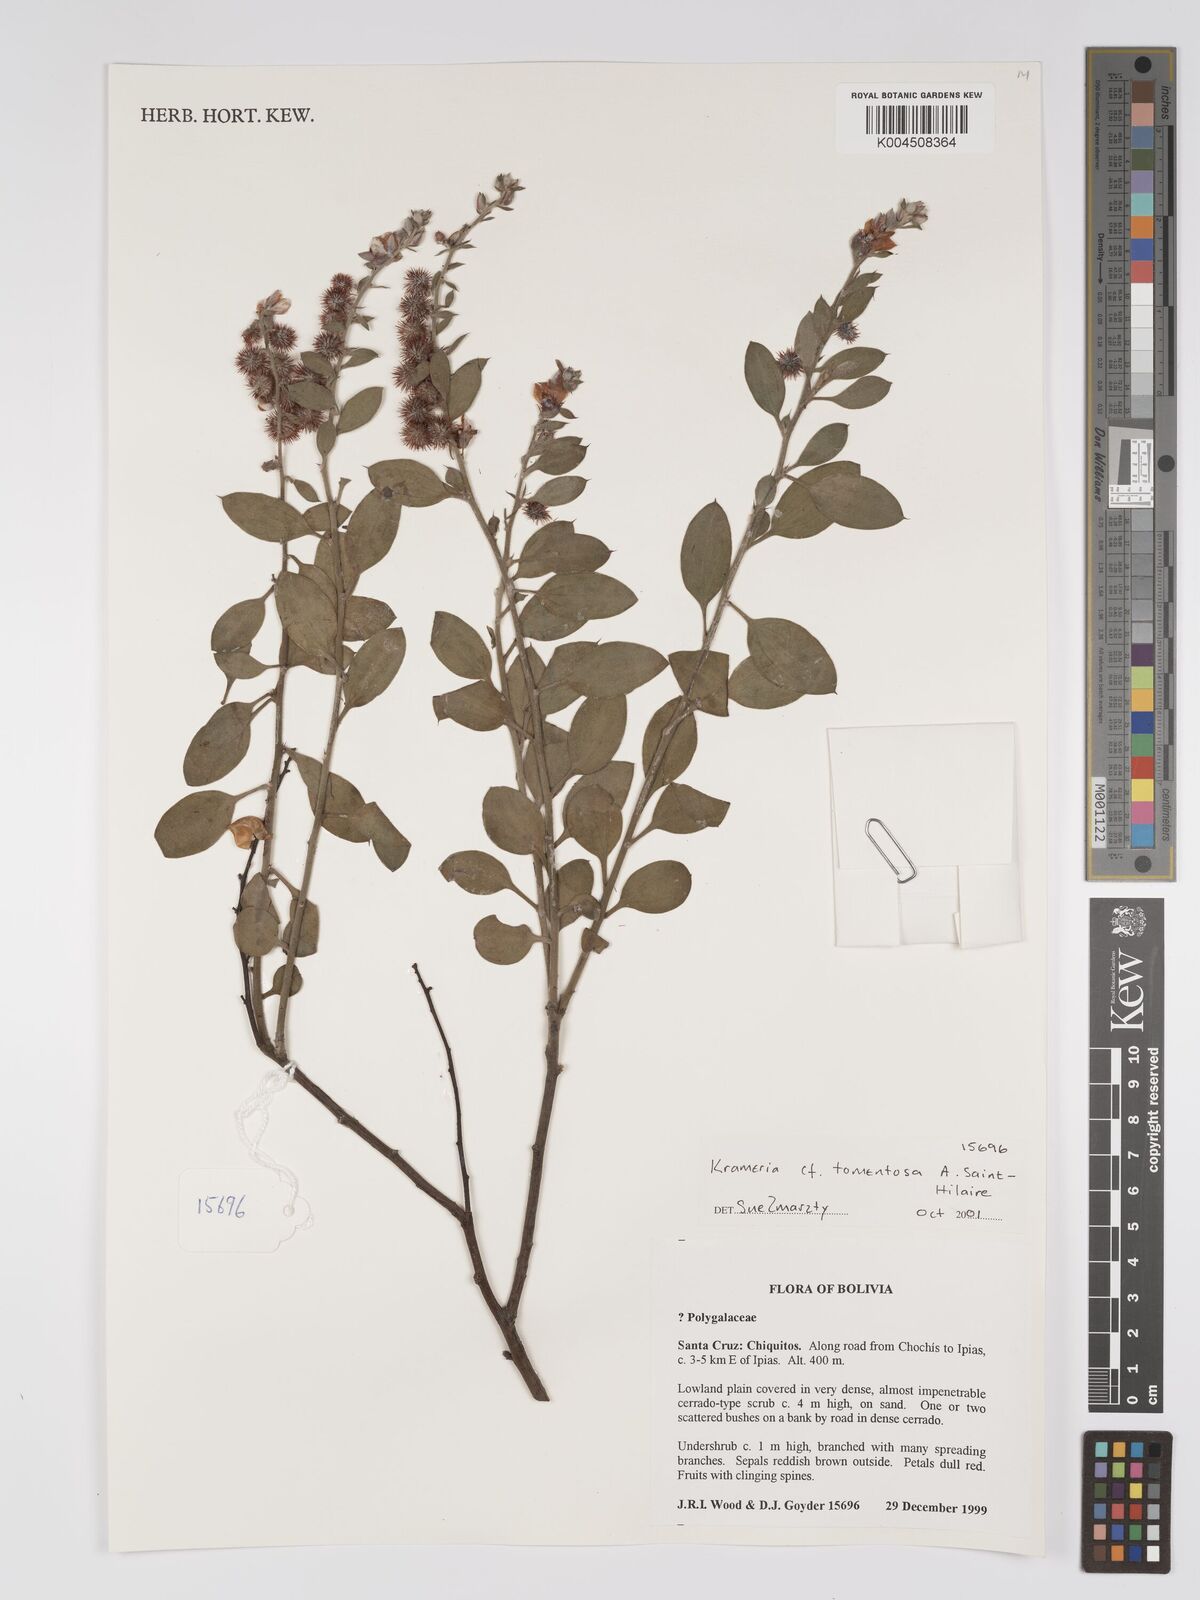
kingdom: Plantae
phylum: Tracheophyta
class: Magnoliopsida
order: Zygophyllales
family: Krameriaceae
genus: Krameria
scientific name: Krameria tomentosa
